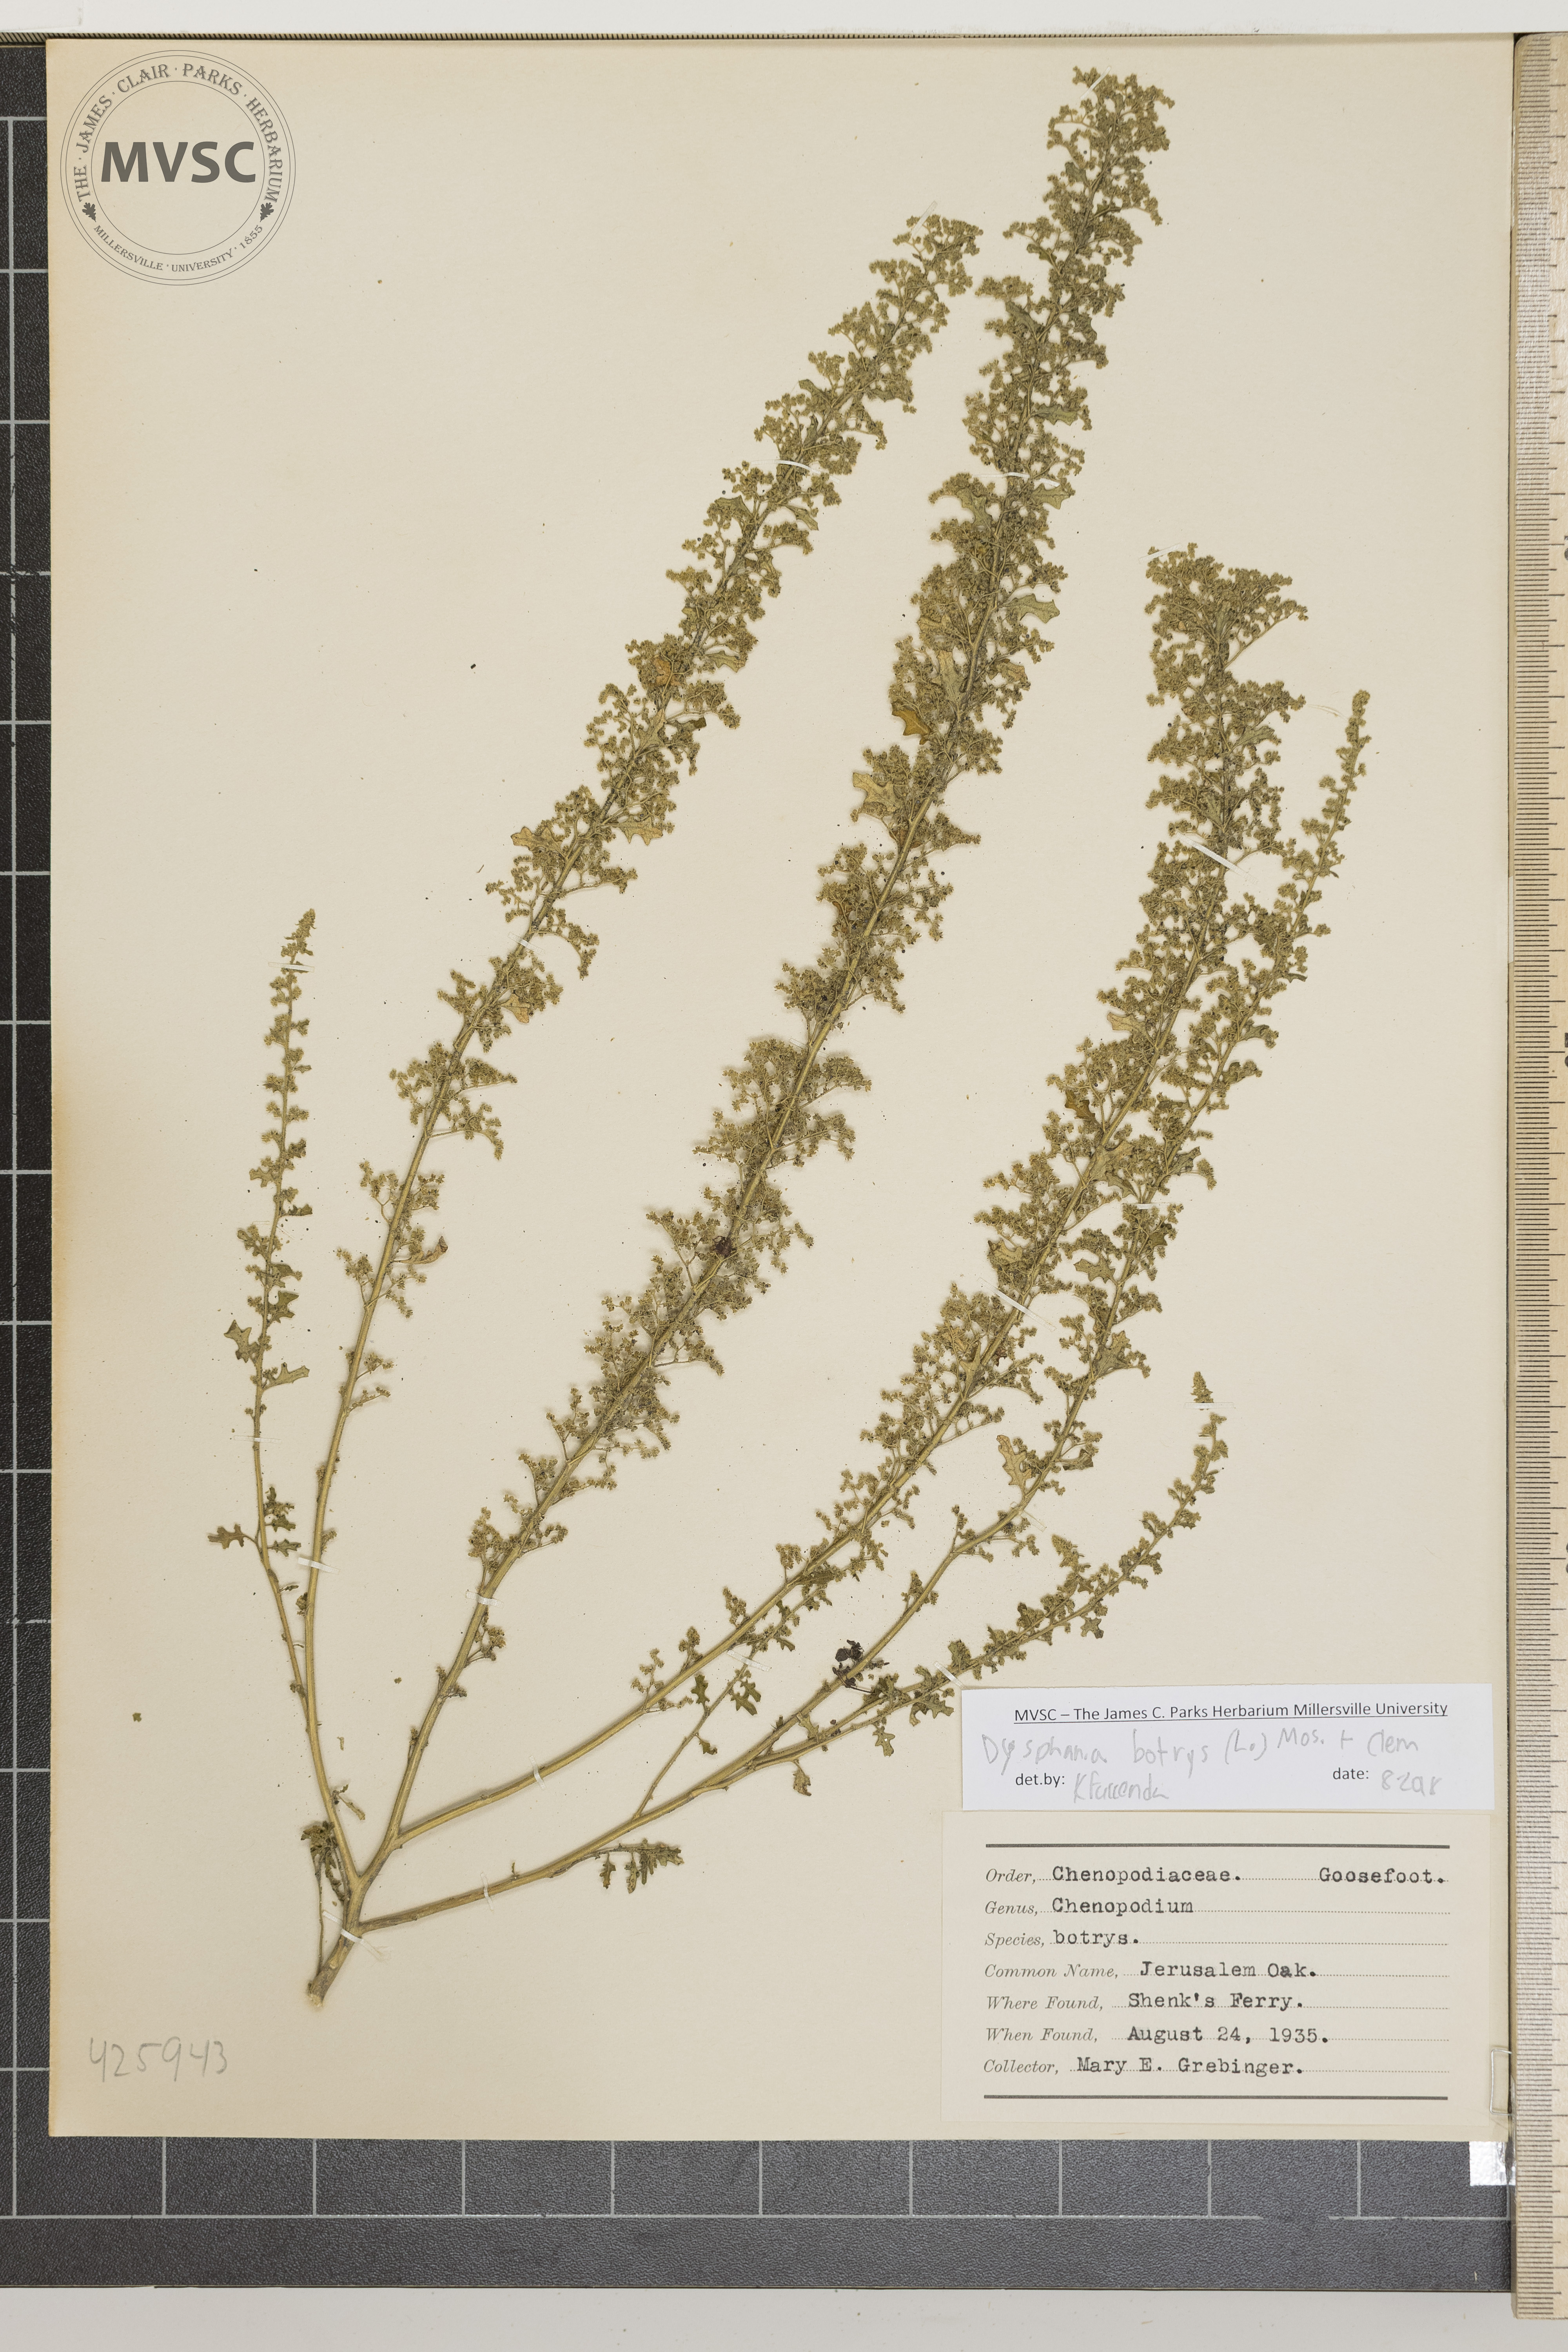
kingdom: Plantae
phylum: Tracheophyta
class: Magnoliopsida
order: Caryophyllales
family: Amaranthaceae
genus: Dysphania
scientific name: Dysphania botrys
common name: Jerusalem oak
